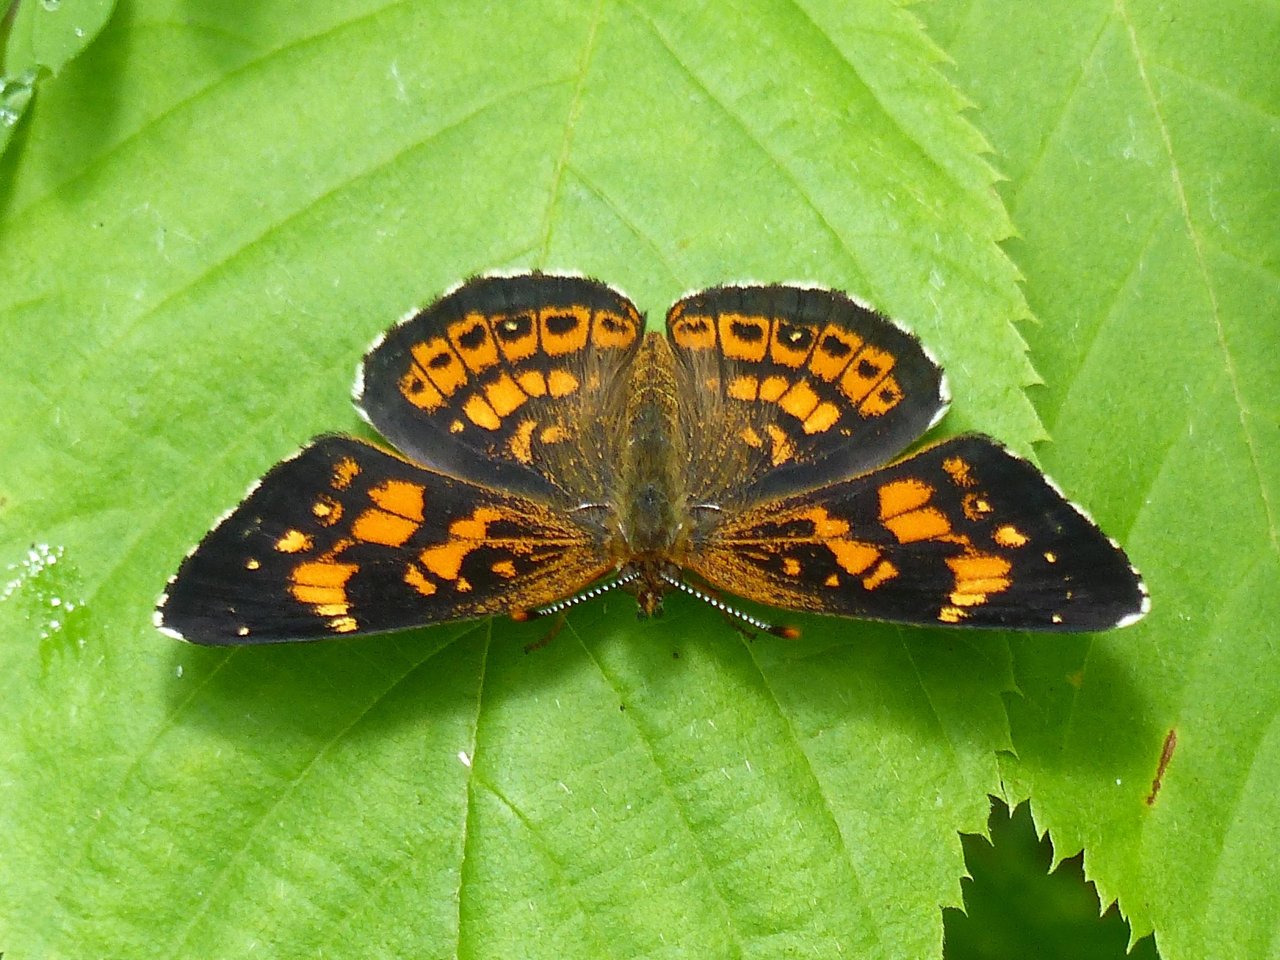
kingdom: Animalia
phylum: Arthropoda
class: Insecta
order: Lepidoptera
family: Nymphalidae
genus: Chlosyne
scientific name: Chlosyne nycteis
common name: Silvery Checkerspot
